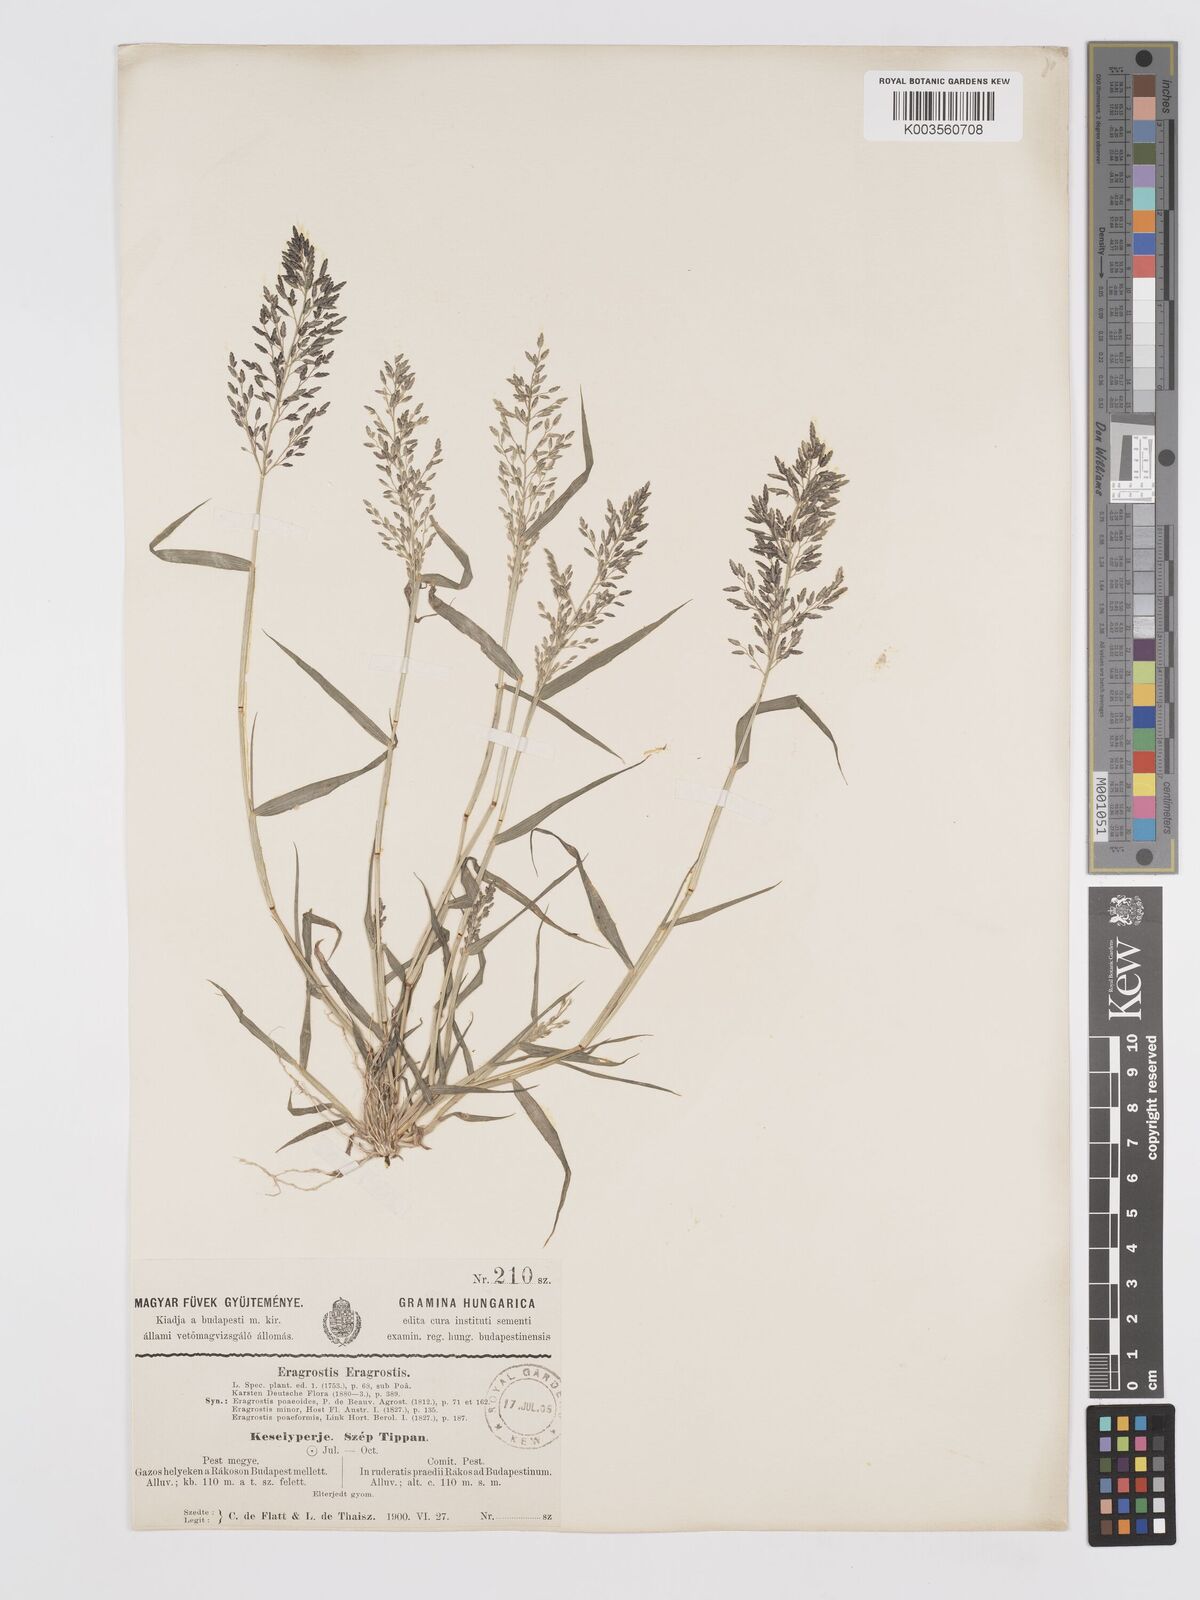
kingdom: Plantae
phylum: Tracheophyta
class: Liliopsida
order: Poales
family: Poaceae
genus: Eragrostis
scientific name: Eragrostis minor
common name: Small love-grass
